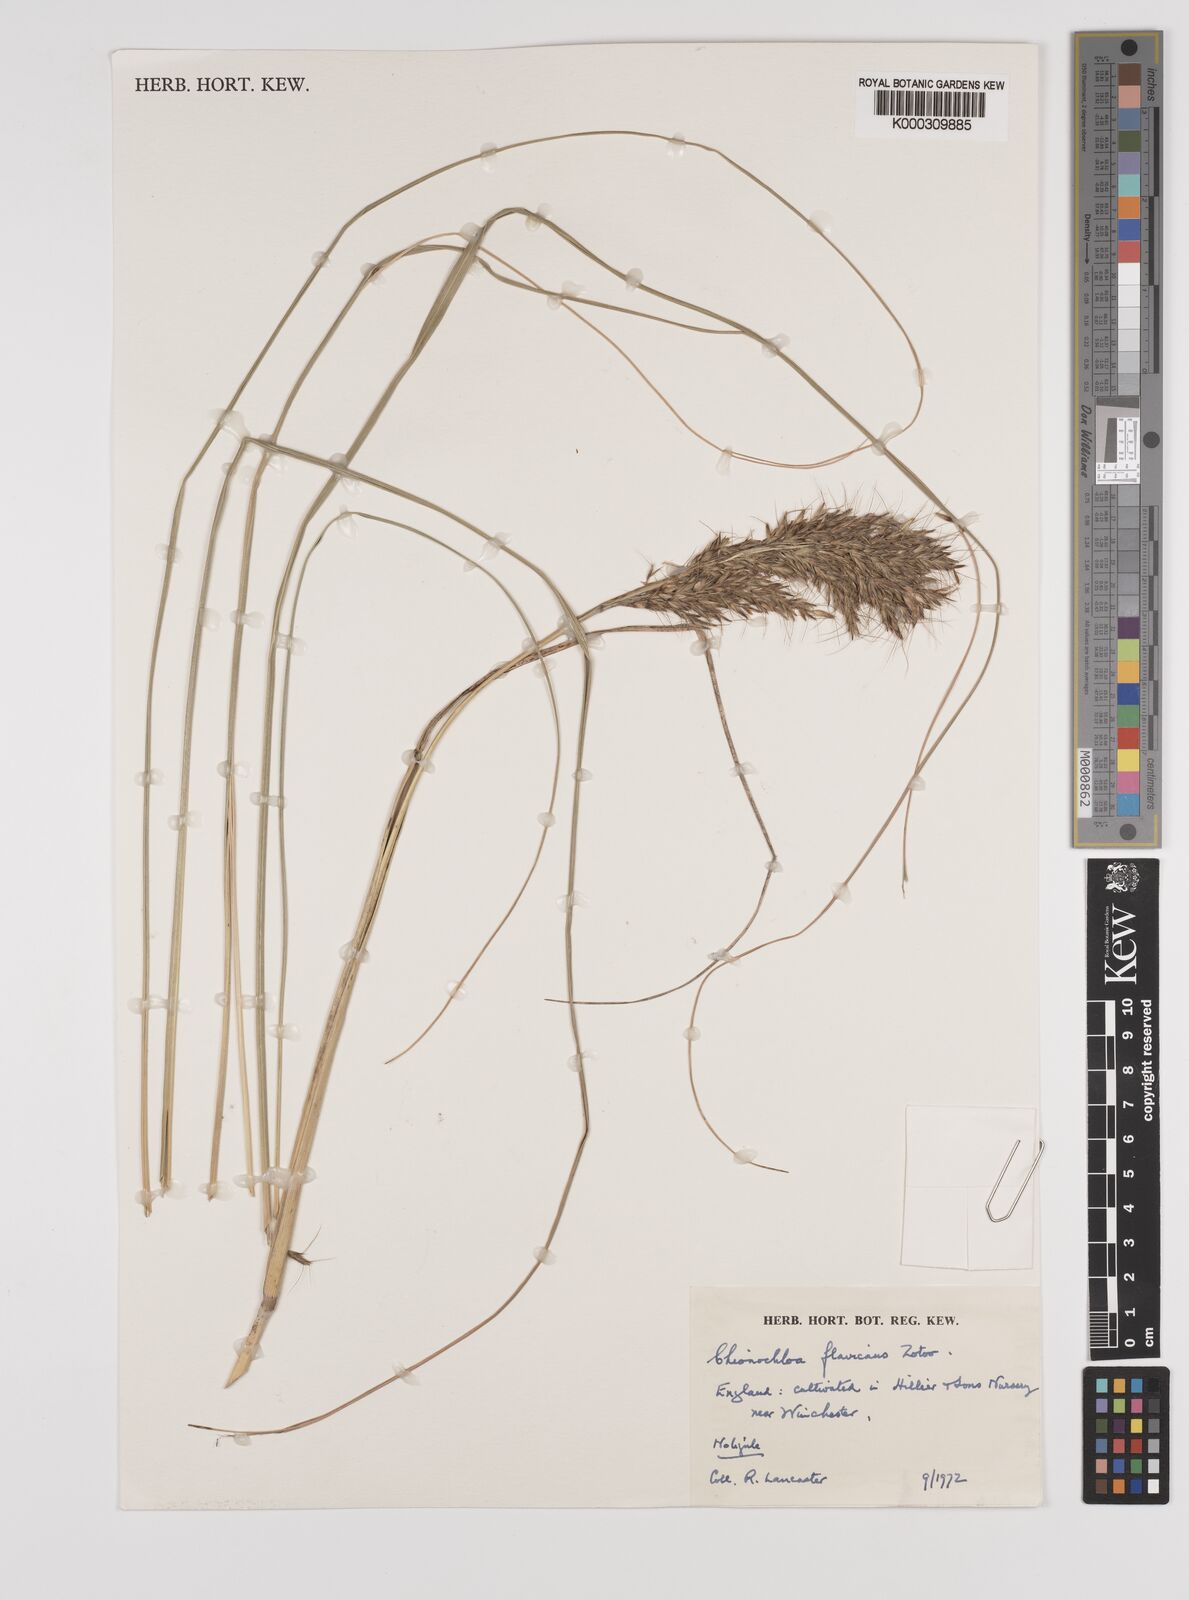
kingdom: Plantae
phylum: Tracheophyta
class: Liliopsida
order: Poales
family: Poaceae
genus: Chionochloa
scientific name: Chionochloa flavescens
